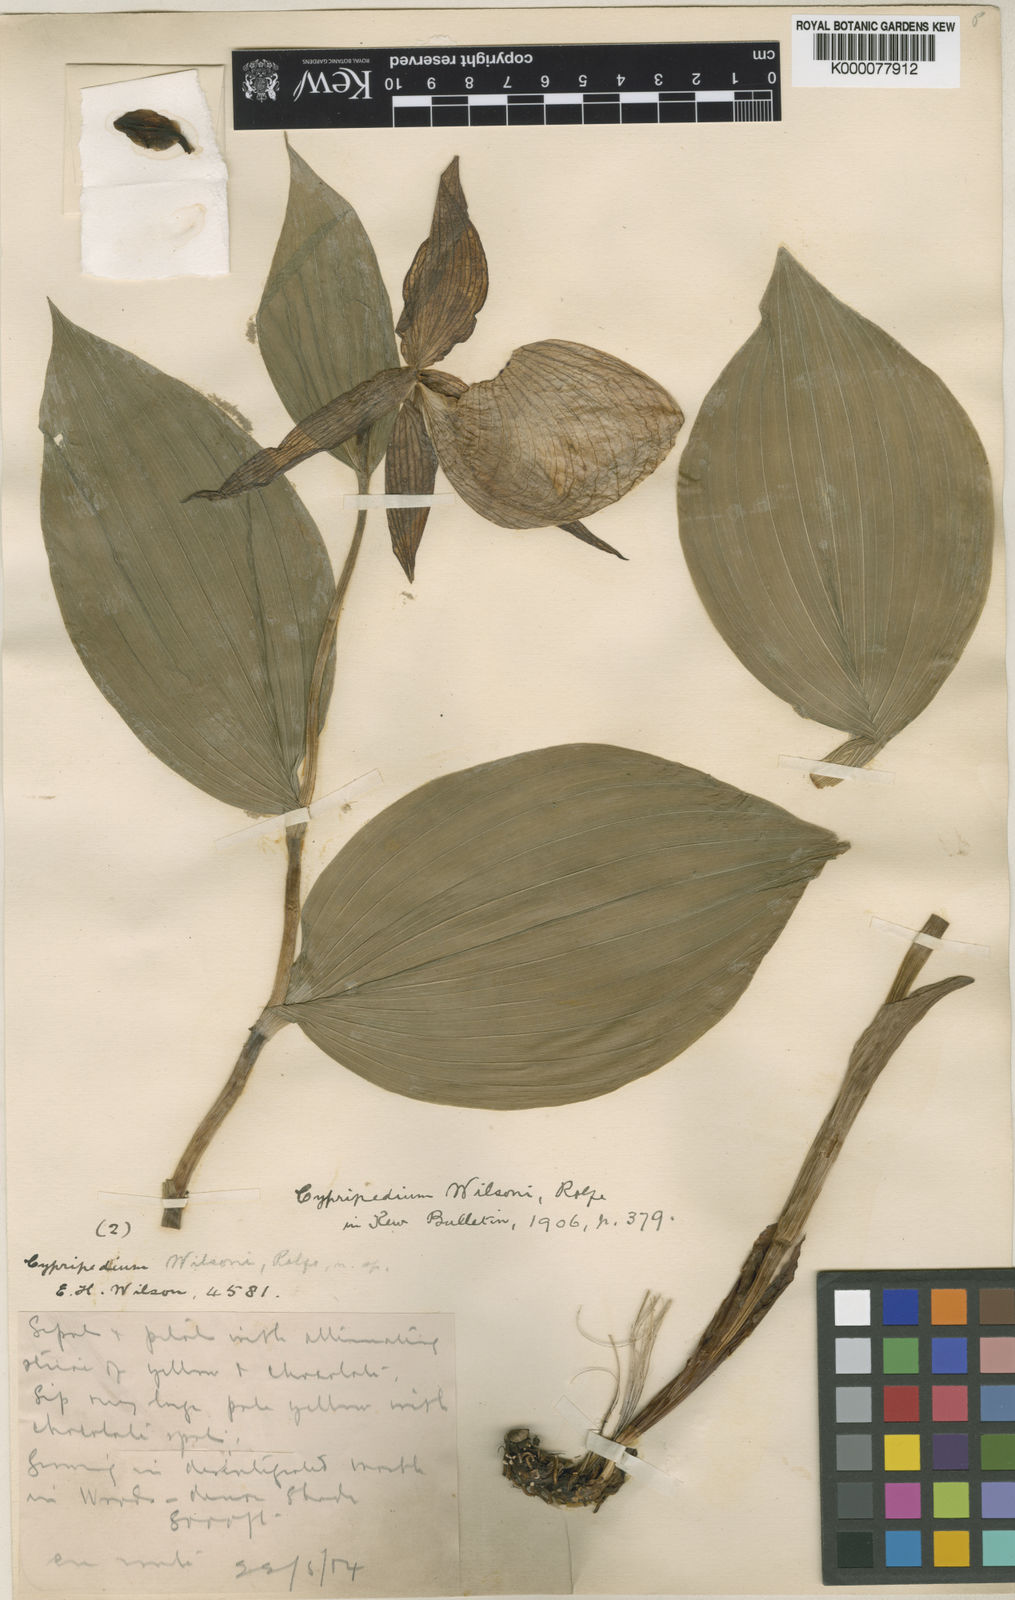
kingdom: Plantae
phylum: Tracheophyta
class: Liliopsida
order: Asparagales
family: Orchidaceae
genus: Cypripedium
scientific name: Cypripedium fasciolatum
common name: Striped lady slipper
